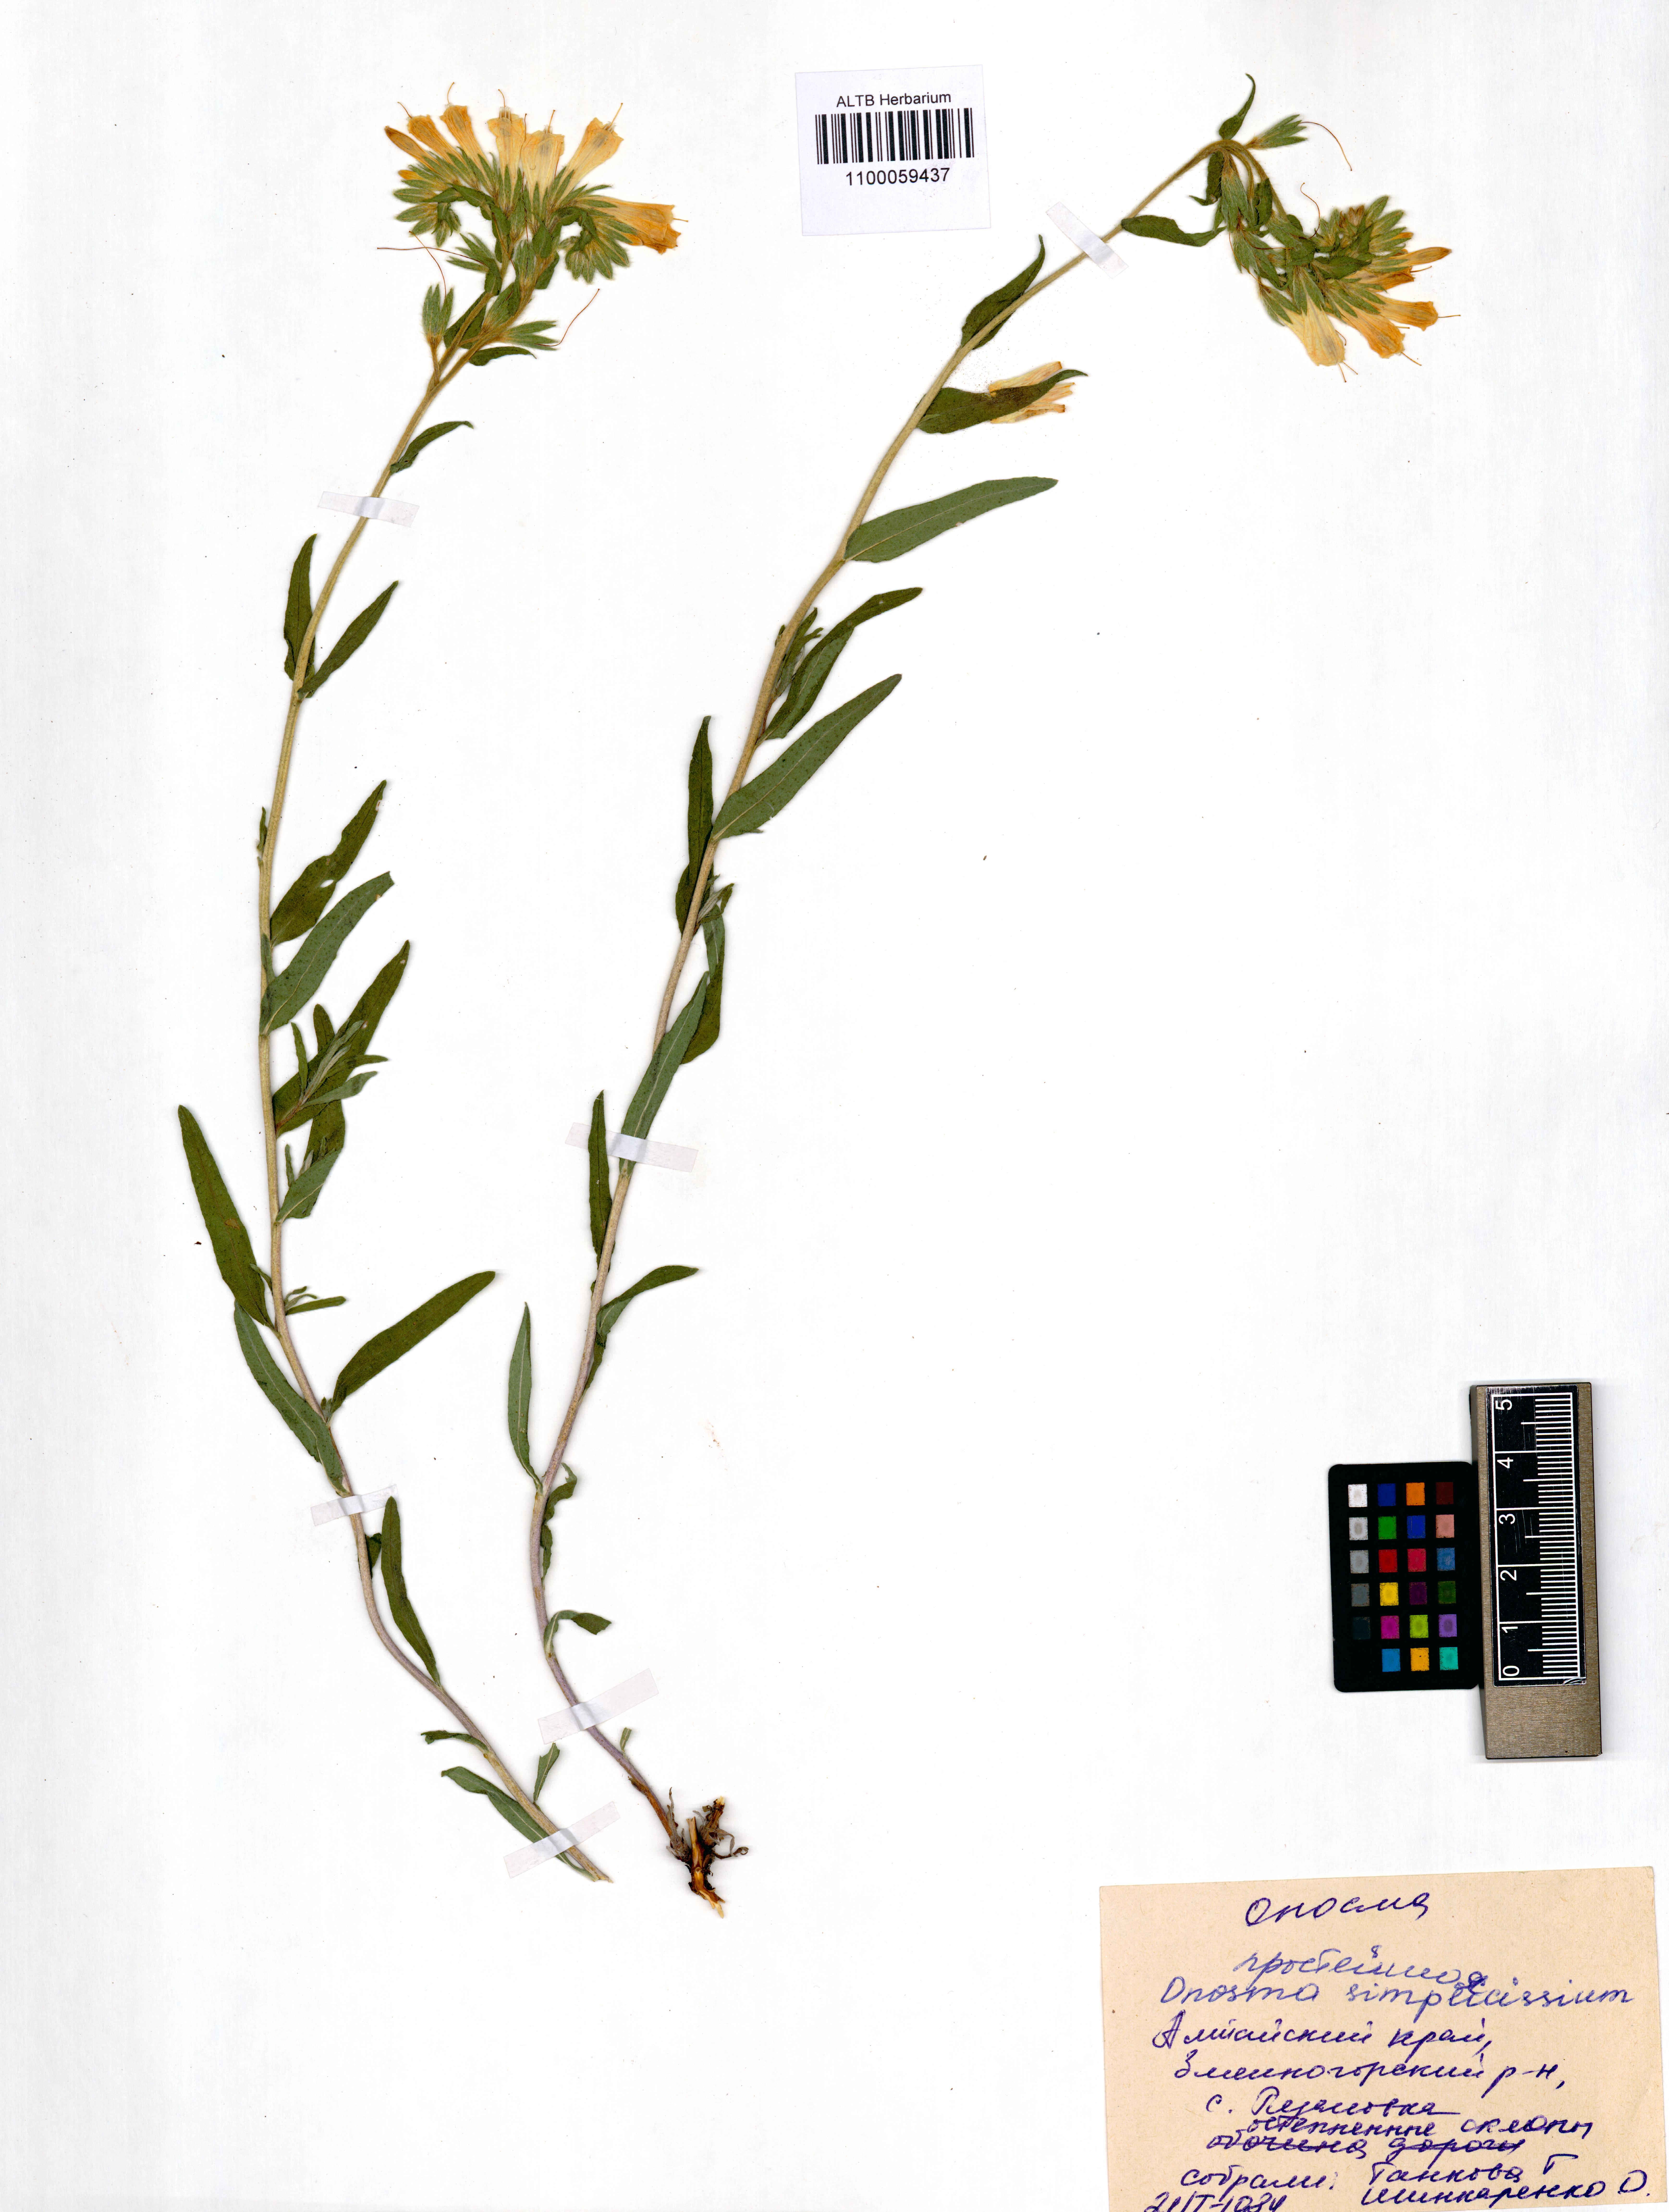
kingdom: Plantae
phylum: Tracheophyta
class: Magnoliopsida
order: Boraginales
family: Boraginaceae
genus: Onosma
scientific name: Onosma simplicissima
